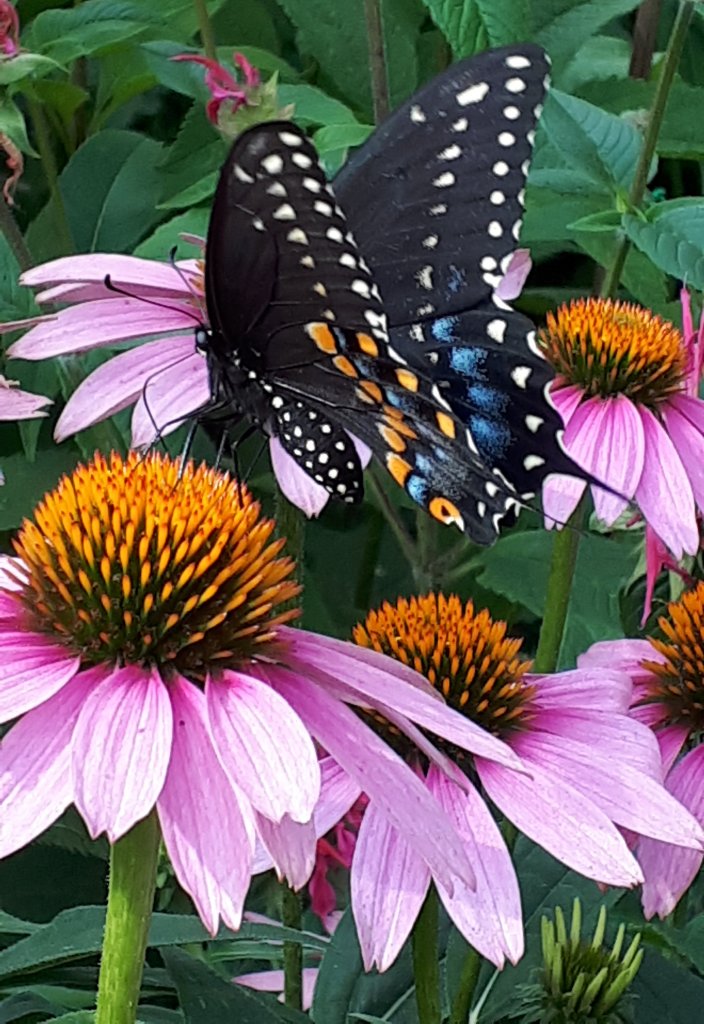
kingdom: Animalia
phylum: Arthropoda
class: Insecta
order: Lepidoptera
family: Papilionidae
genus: Papilio
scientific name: Papilio polyxenes
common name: Black Swallowtail
